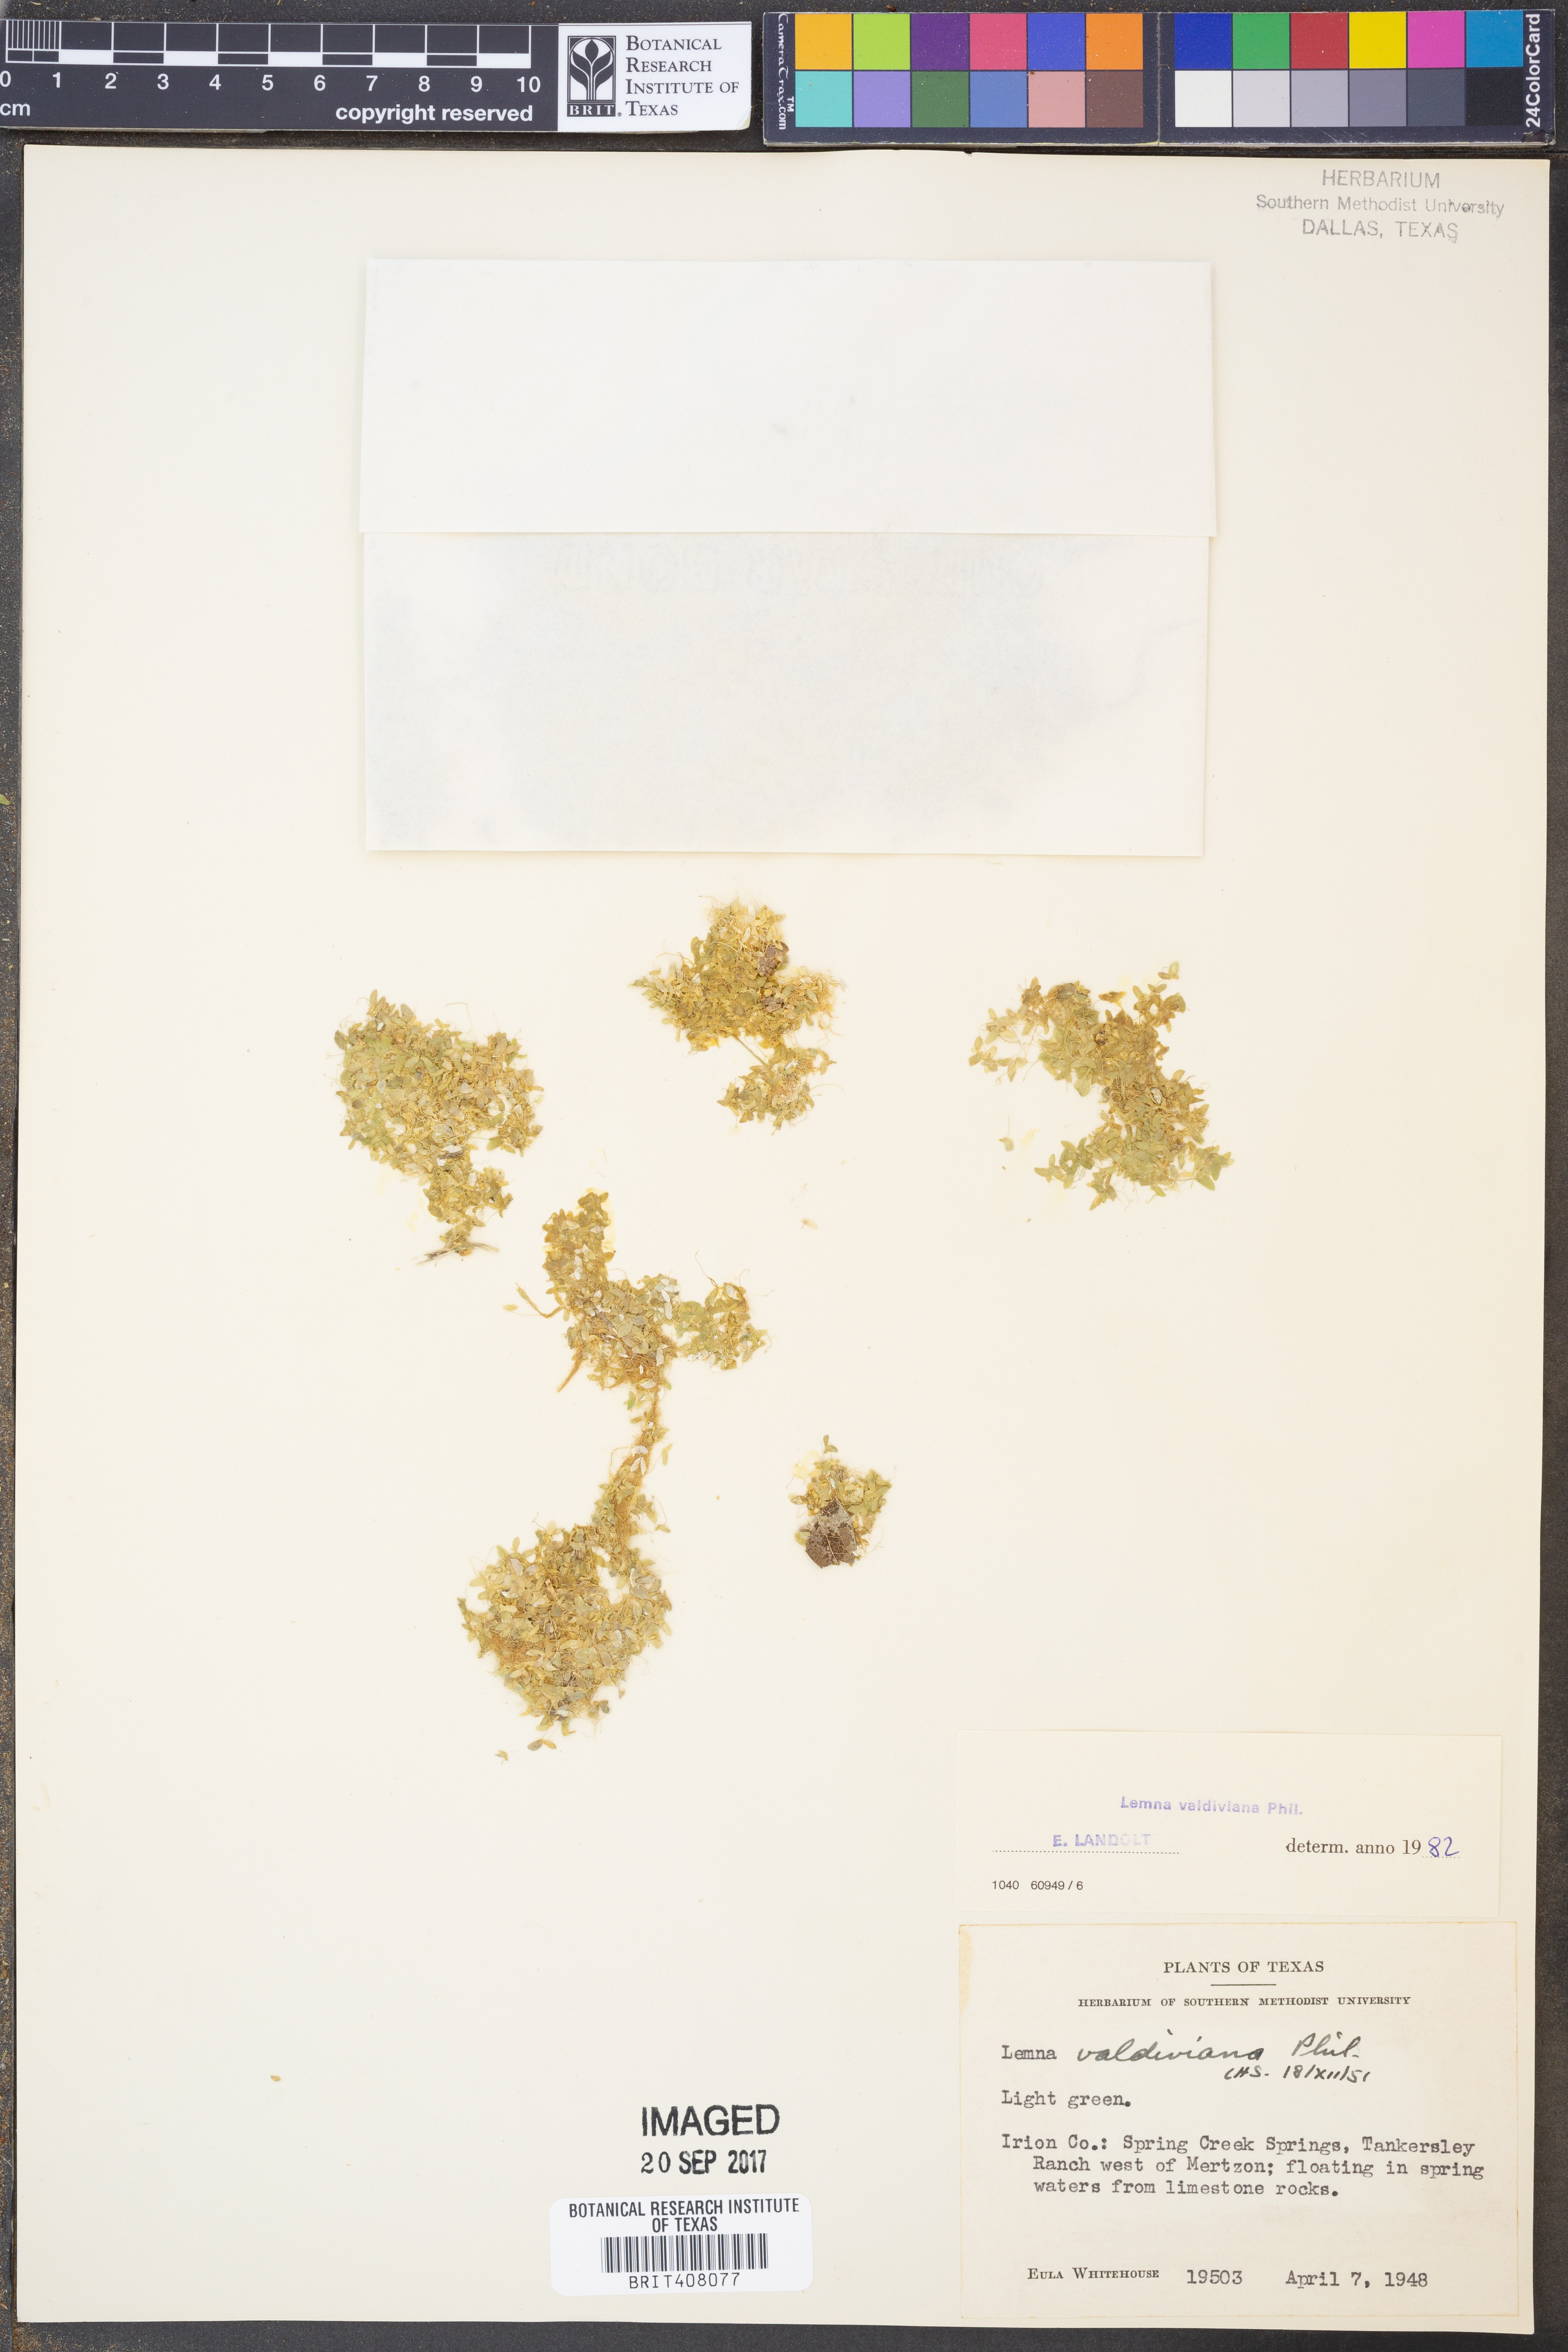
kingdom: Plantae
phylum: Tracheophyta
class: Liliopsida
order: Alismatales
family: Araceae
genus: Lemna
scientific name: Lemna valdiviana
